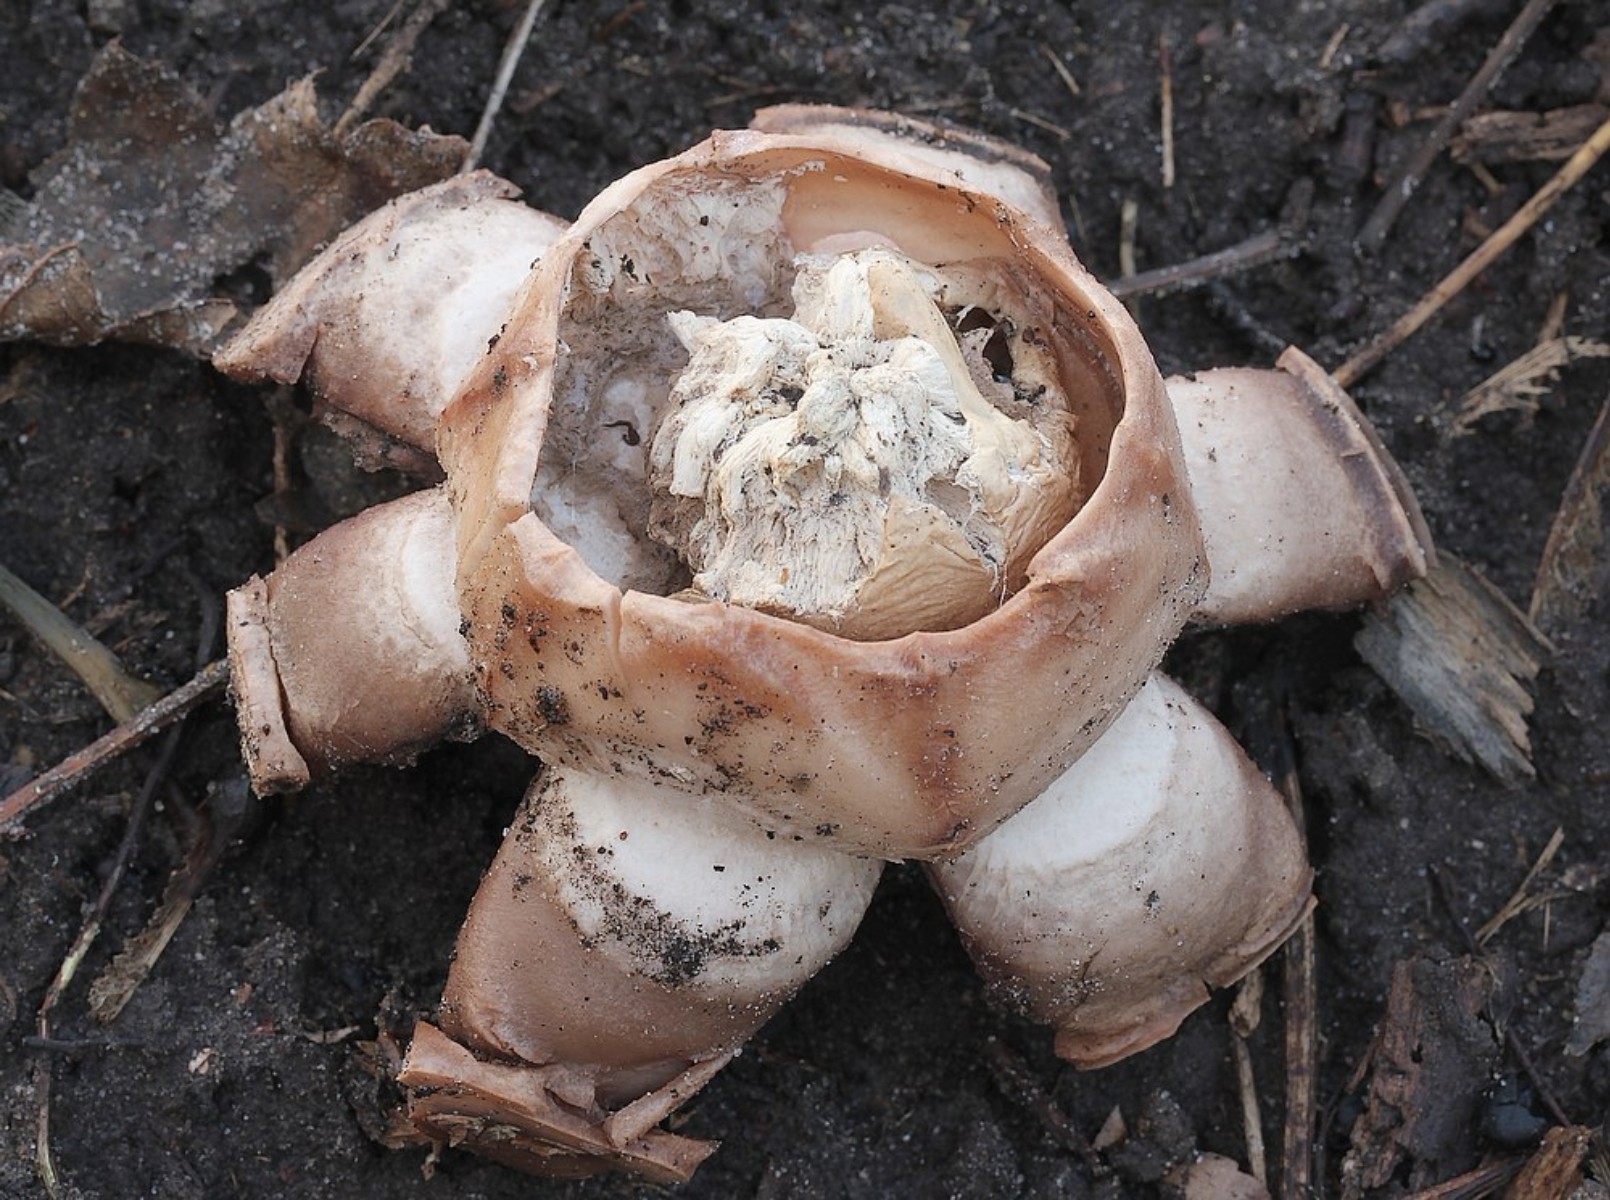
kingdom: Fungi
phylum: Basidiomycota
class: Agaricomycetes
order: Geastrales
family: Geastraceae
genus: Geastrum
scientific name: Geastrum melanocephalum
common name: håret stjernebold
